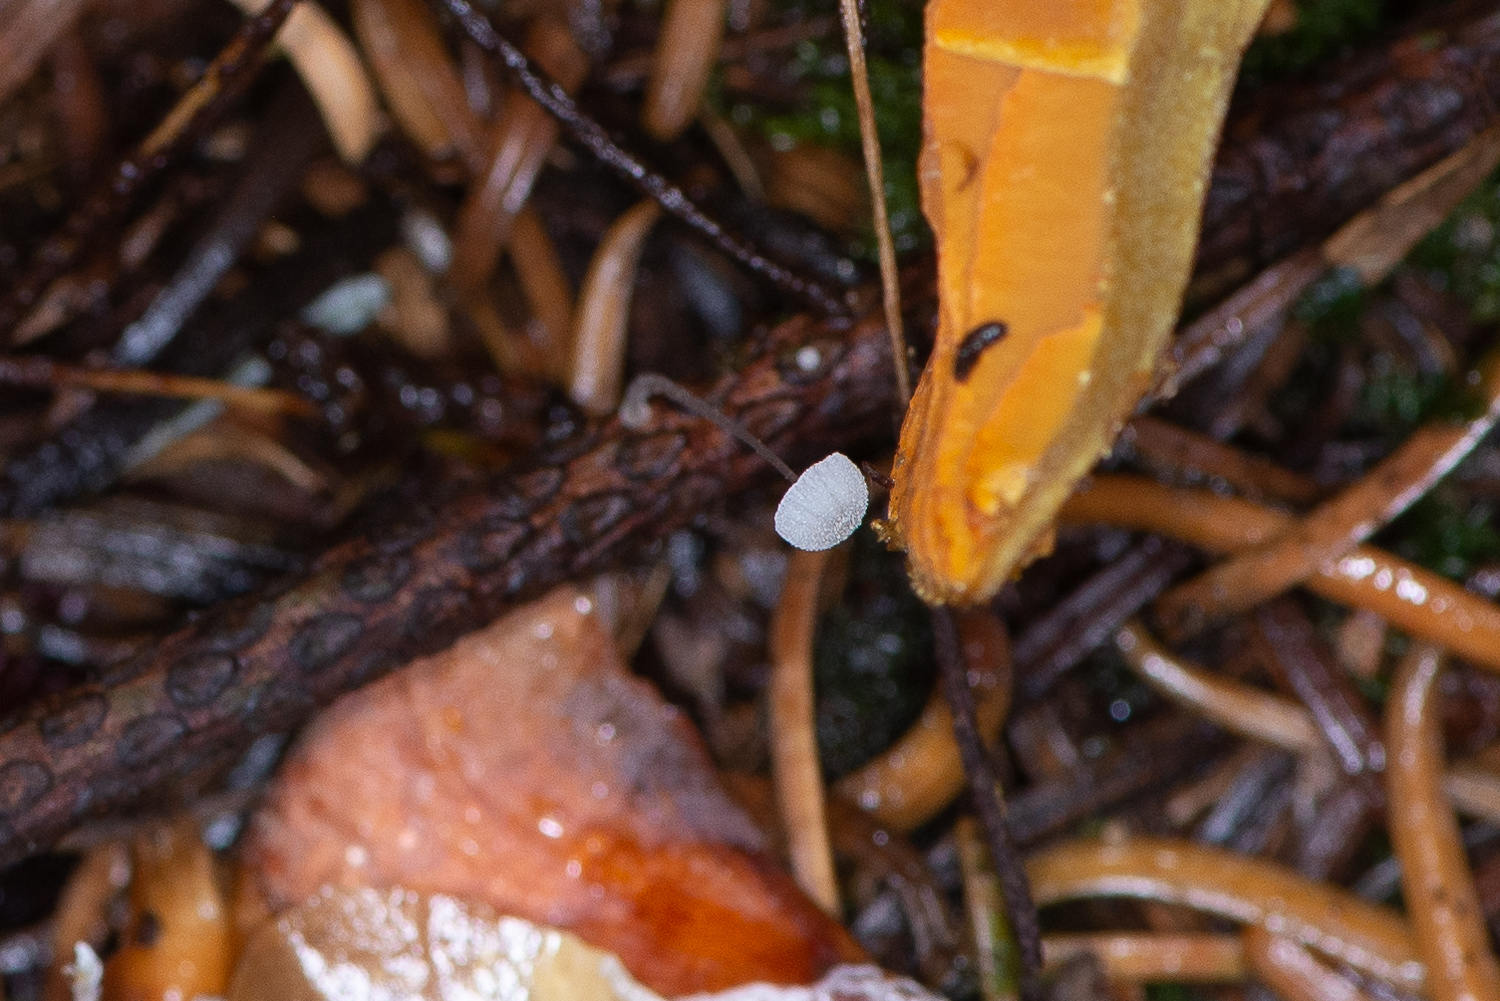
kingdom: Fungi
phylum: Basidiomycota
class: Agaricomycetes
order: Agaricales
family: Mycenaceae
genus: Mycena
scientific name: Mycena tenerrima
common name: pudret huesvamp
